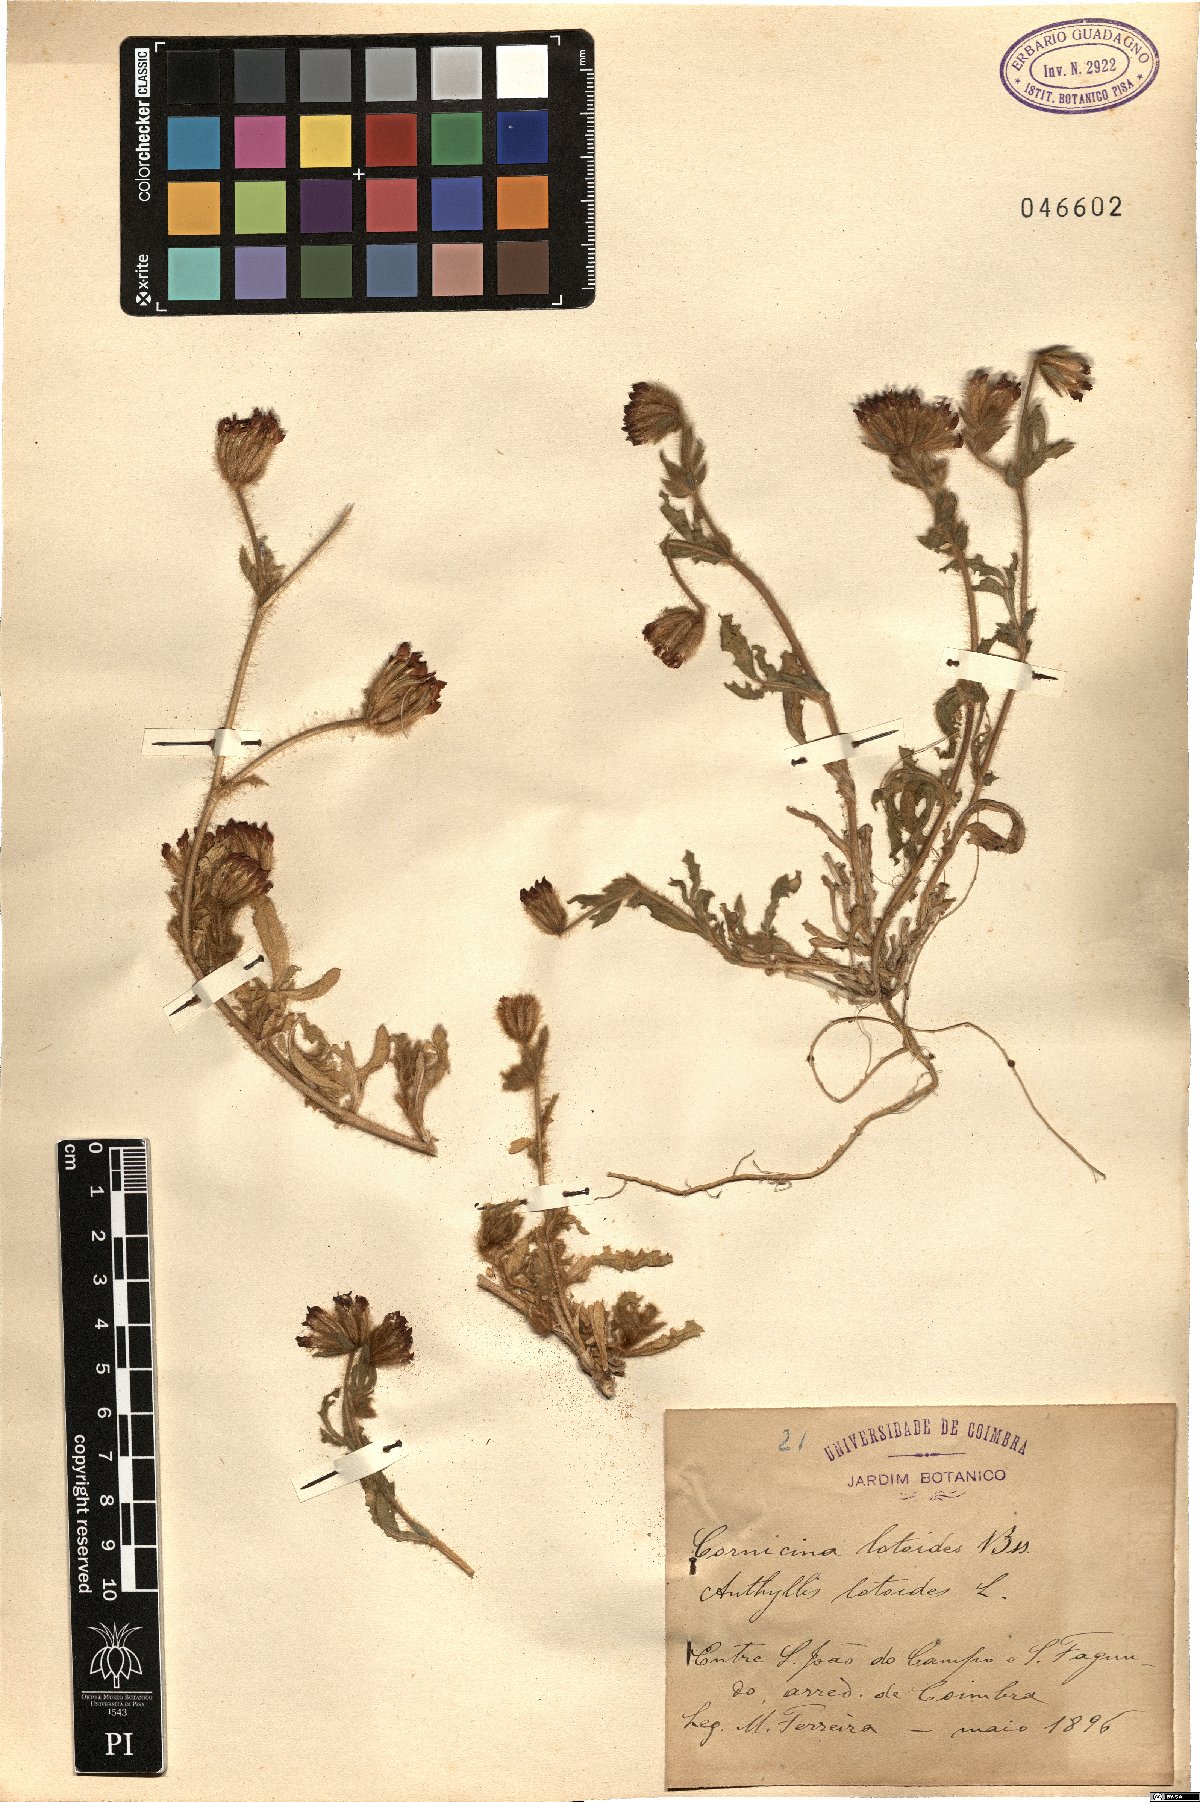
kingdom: Plantae
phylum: Tracheophyta
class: Magnoliopsida
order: Fabales
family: Fabaceae
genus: Anthyllis
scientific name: Anthyllis lotoides
